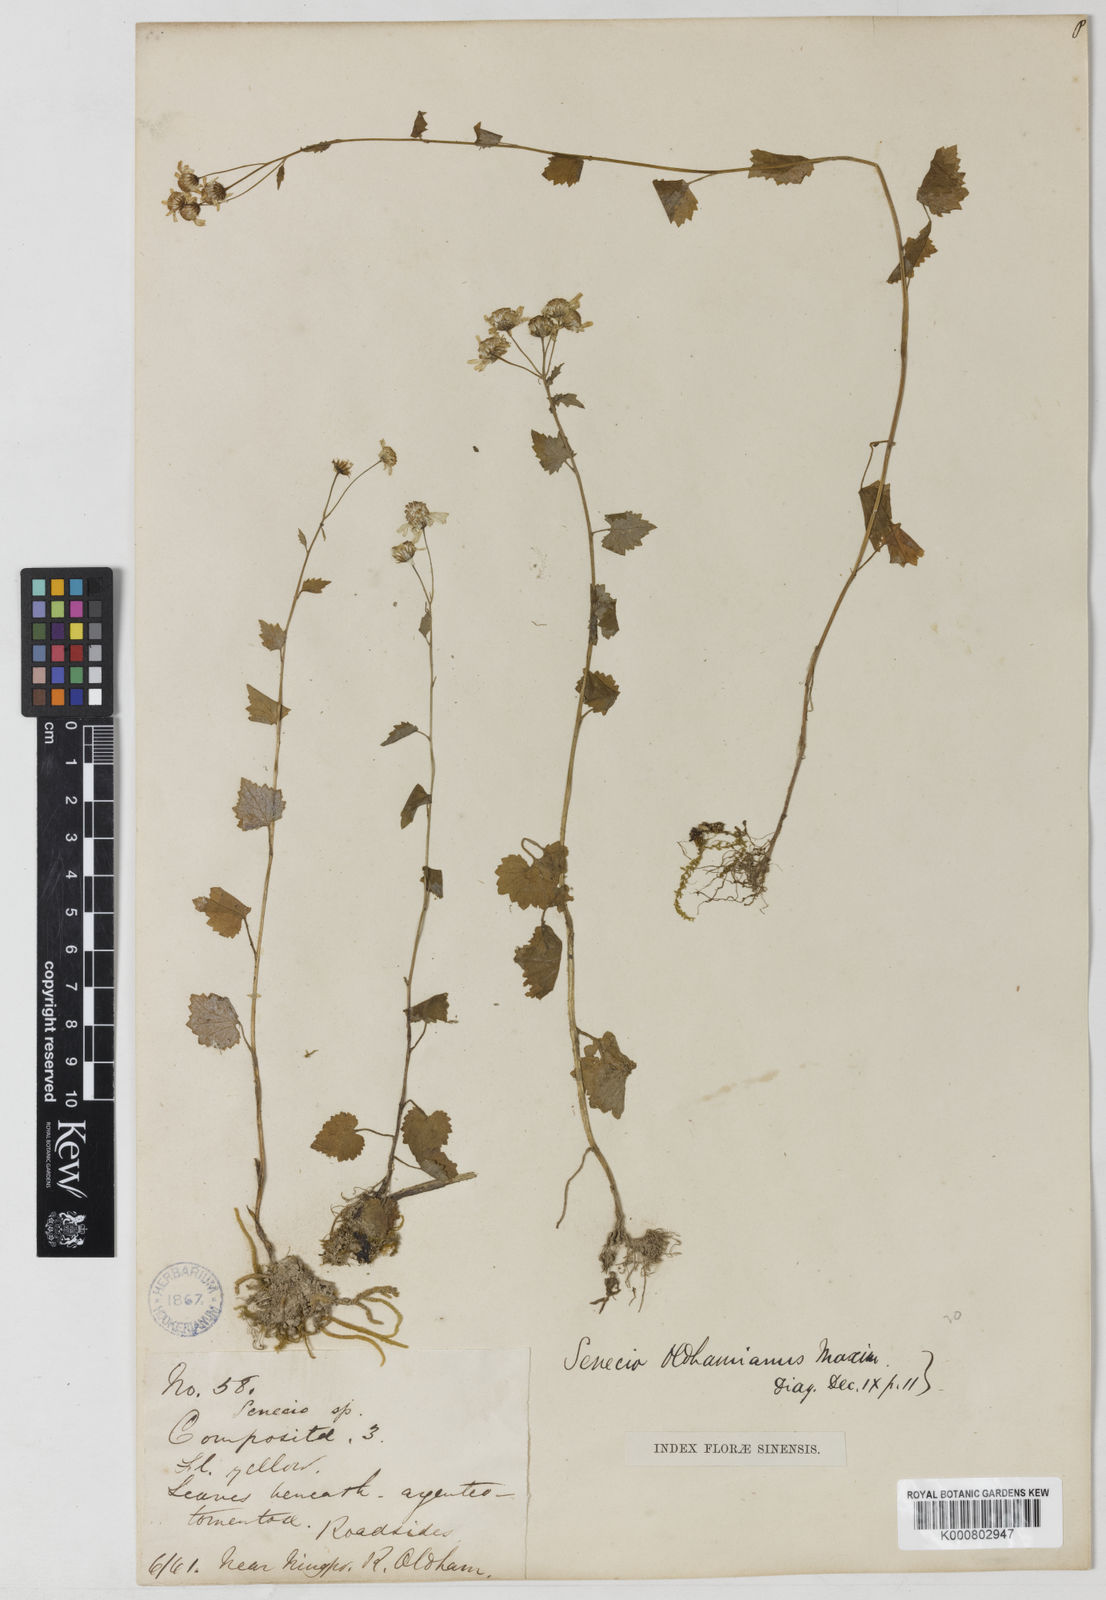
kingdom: Plantae
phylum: Tracheophyta
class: Magnoliopsida
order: Asterales
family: Asteraceae
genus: Sinosenecio
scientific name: Sinosenecio oldhamianus
